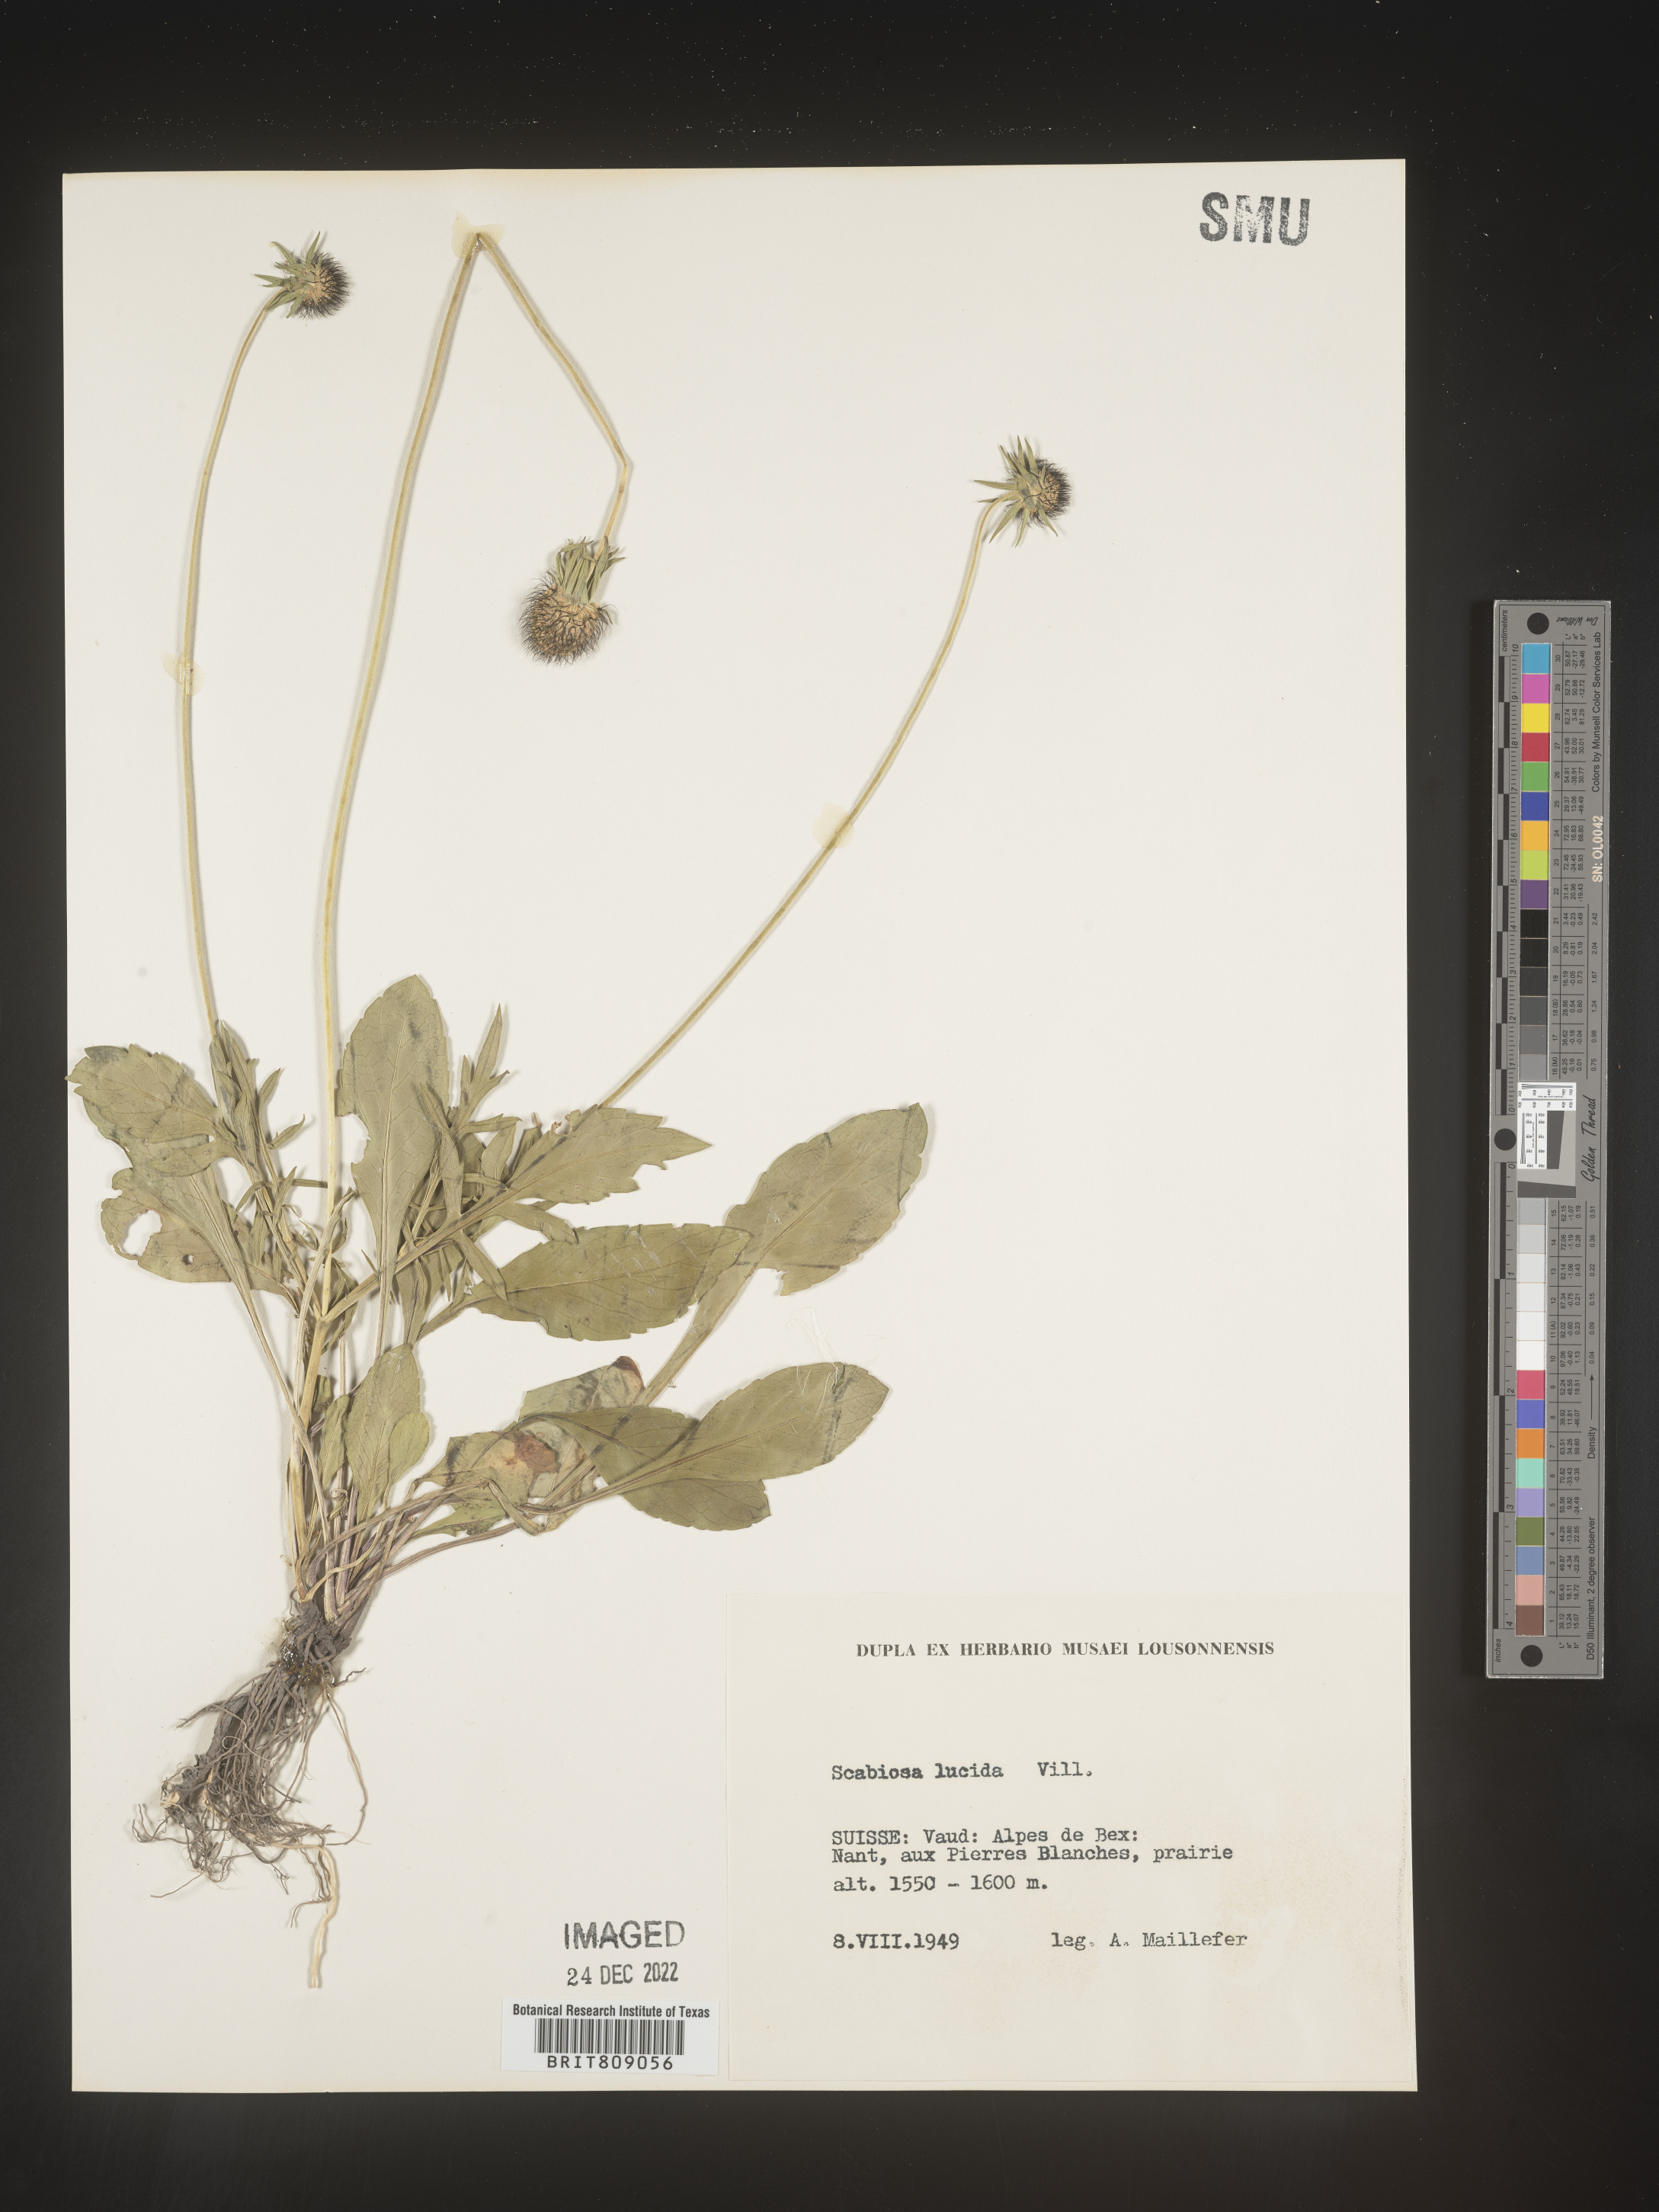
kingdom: Plantae
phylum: Tracheophyta
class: Magnoliopsida
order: Dipsacales
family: Caprifoliaceae
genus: Scabiosa
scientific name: Scabiosa
